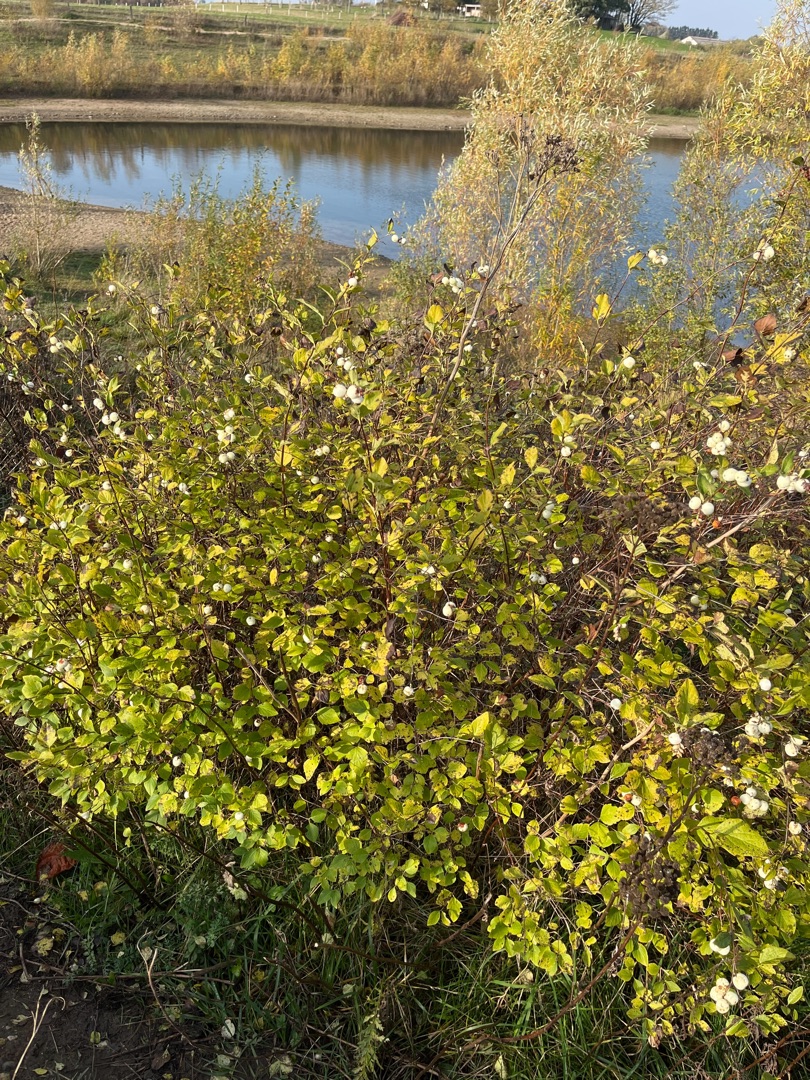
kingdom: Plantae
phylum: Tracheophyta
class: Magnoliopsida
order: Dipsacales
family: Caprifoliaceae
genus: Symphoricarpos
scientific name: Symphoricarpos albus
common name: Almindelig snebær
